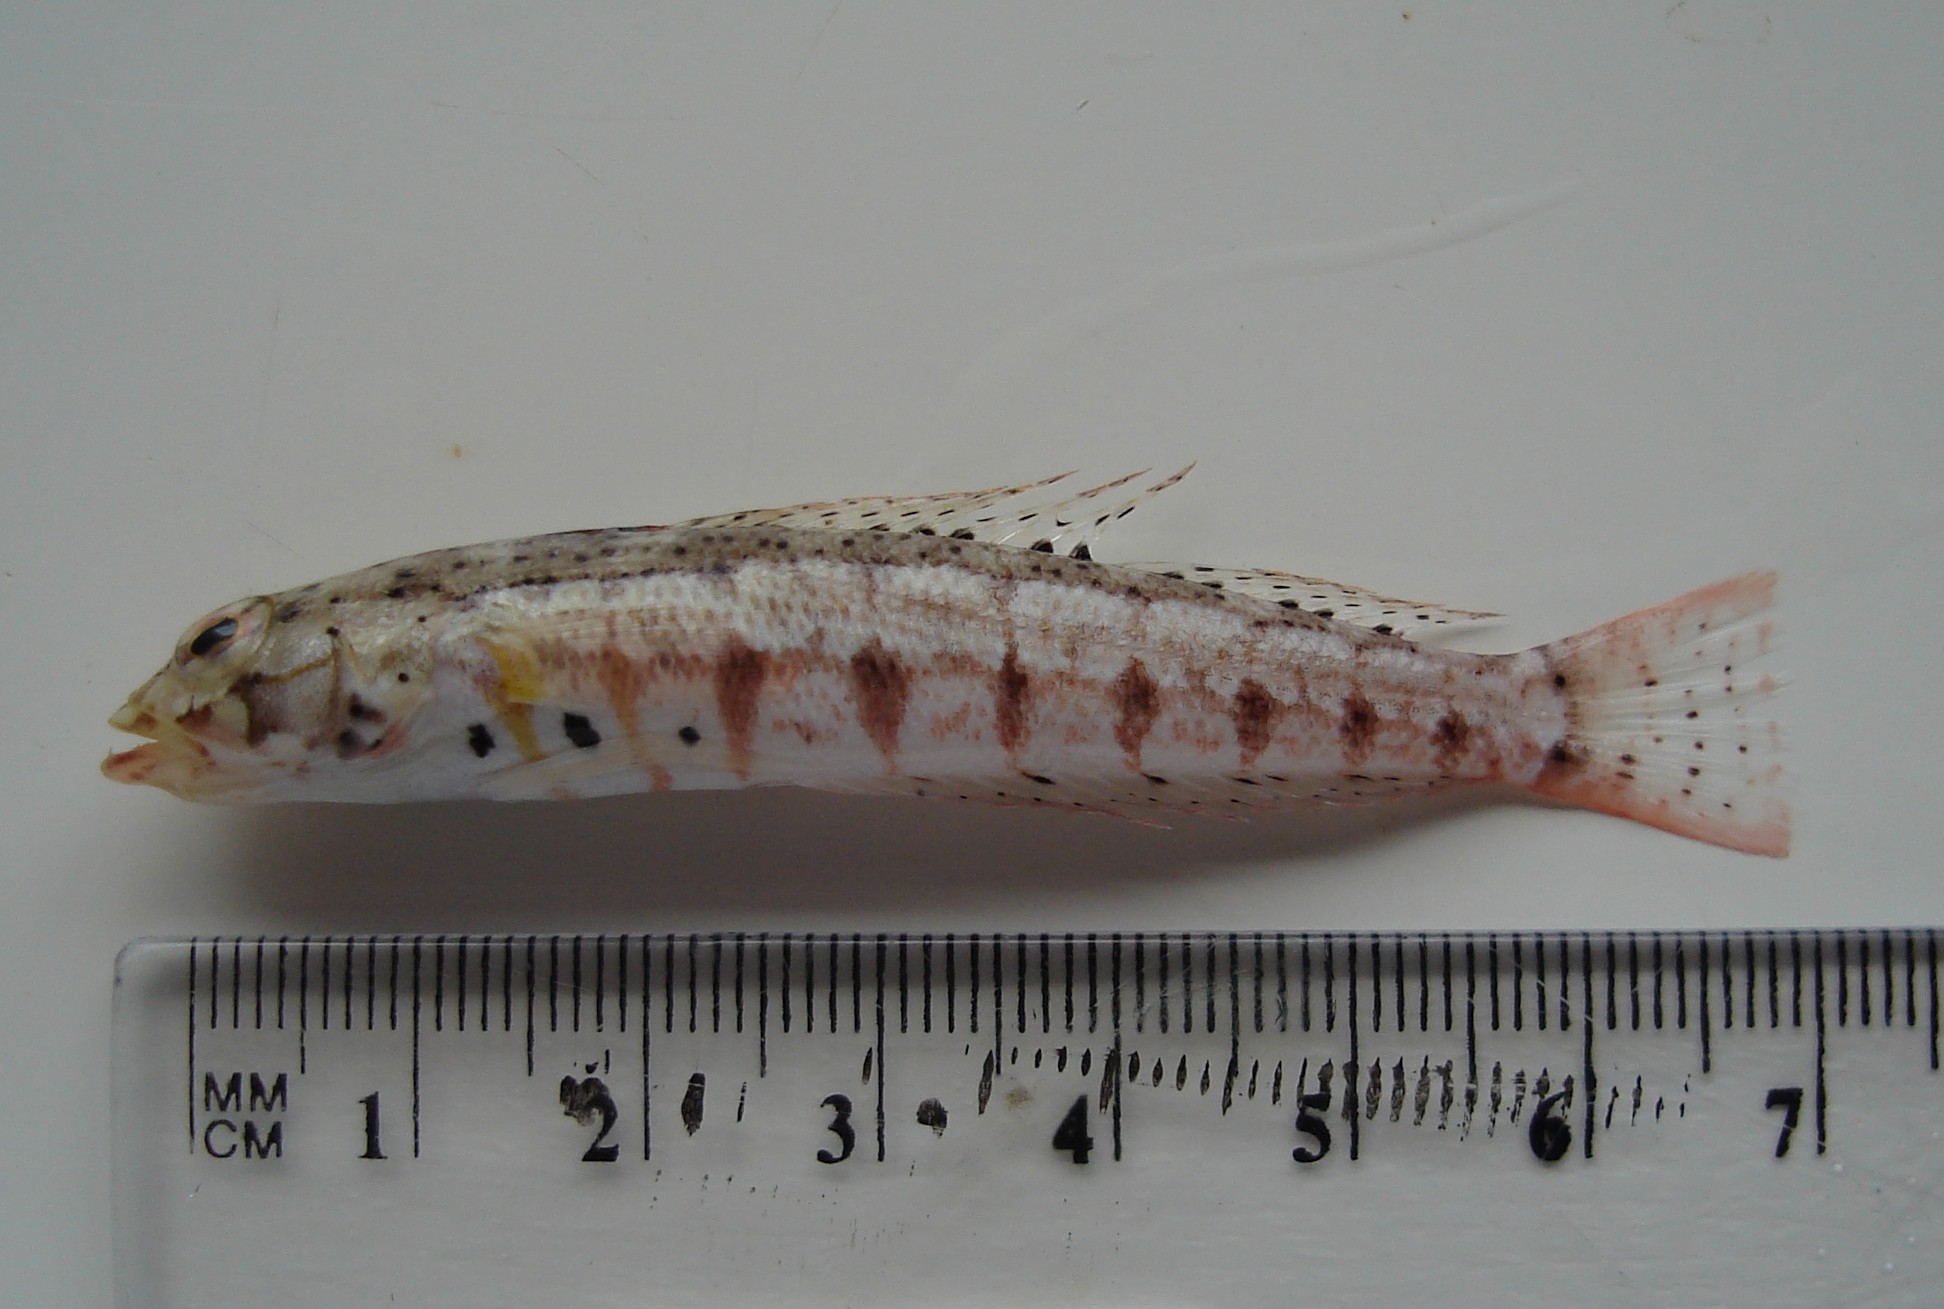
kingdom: Animalia
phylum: Chordata
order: Perciformes
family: Pinguipedidae
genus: Parapercis
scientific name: Parapercis punctulata
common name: Spotted sandperch
